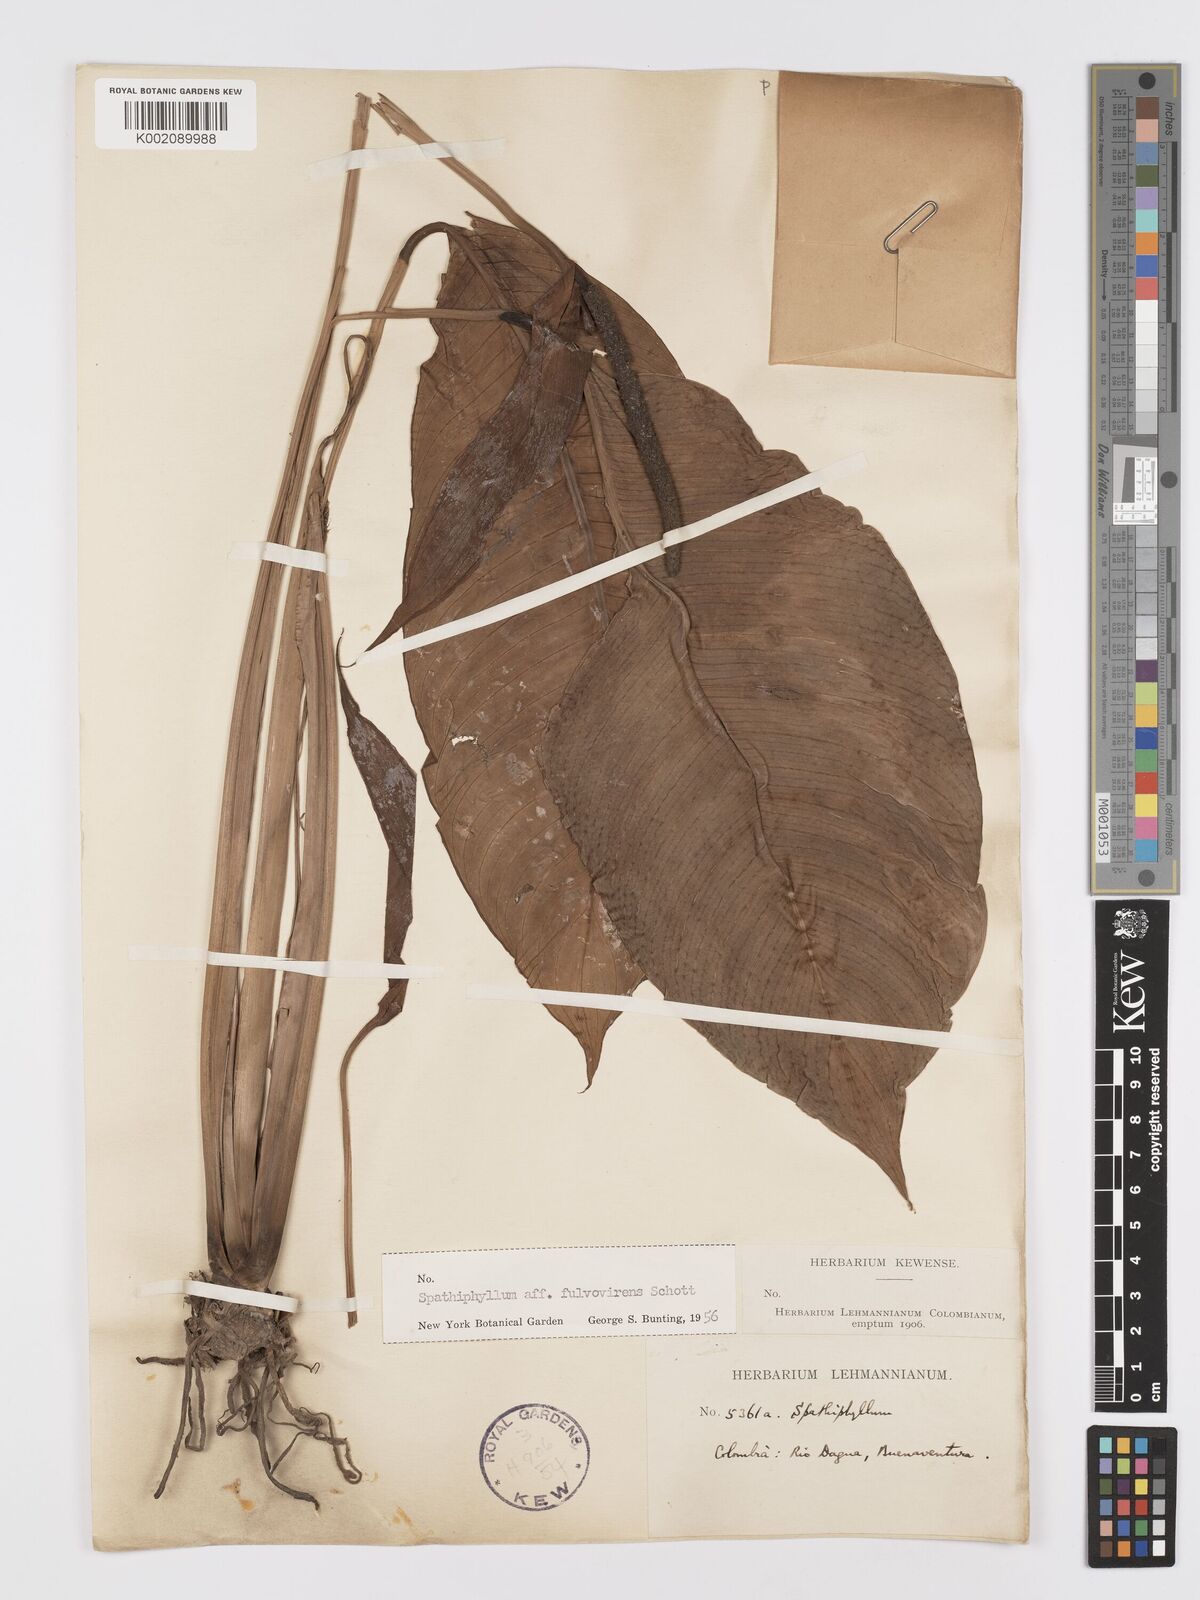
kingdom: Plantae
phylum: Tracheophyta
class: Liliopsida
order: Alismatales
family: Araceae
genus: Spathiphyllum
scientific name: Spathiphyllum fulvovirens
